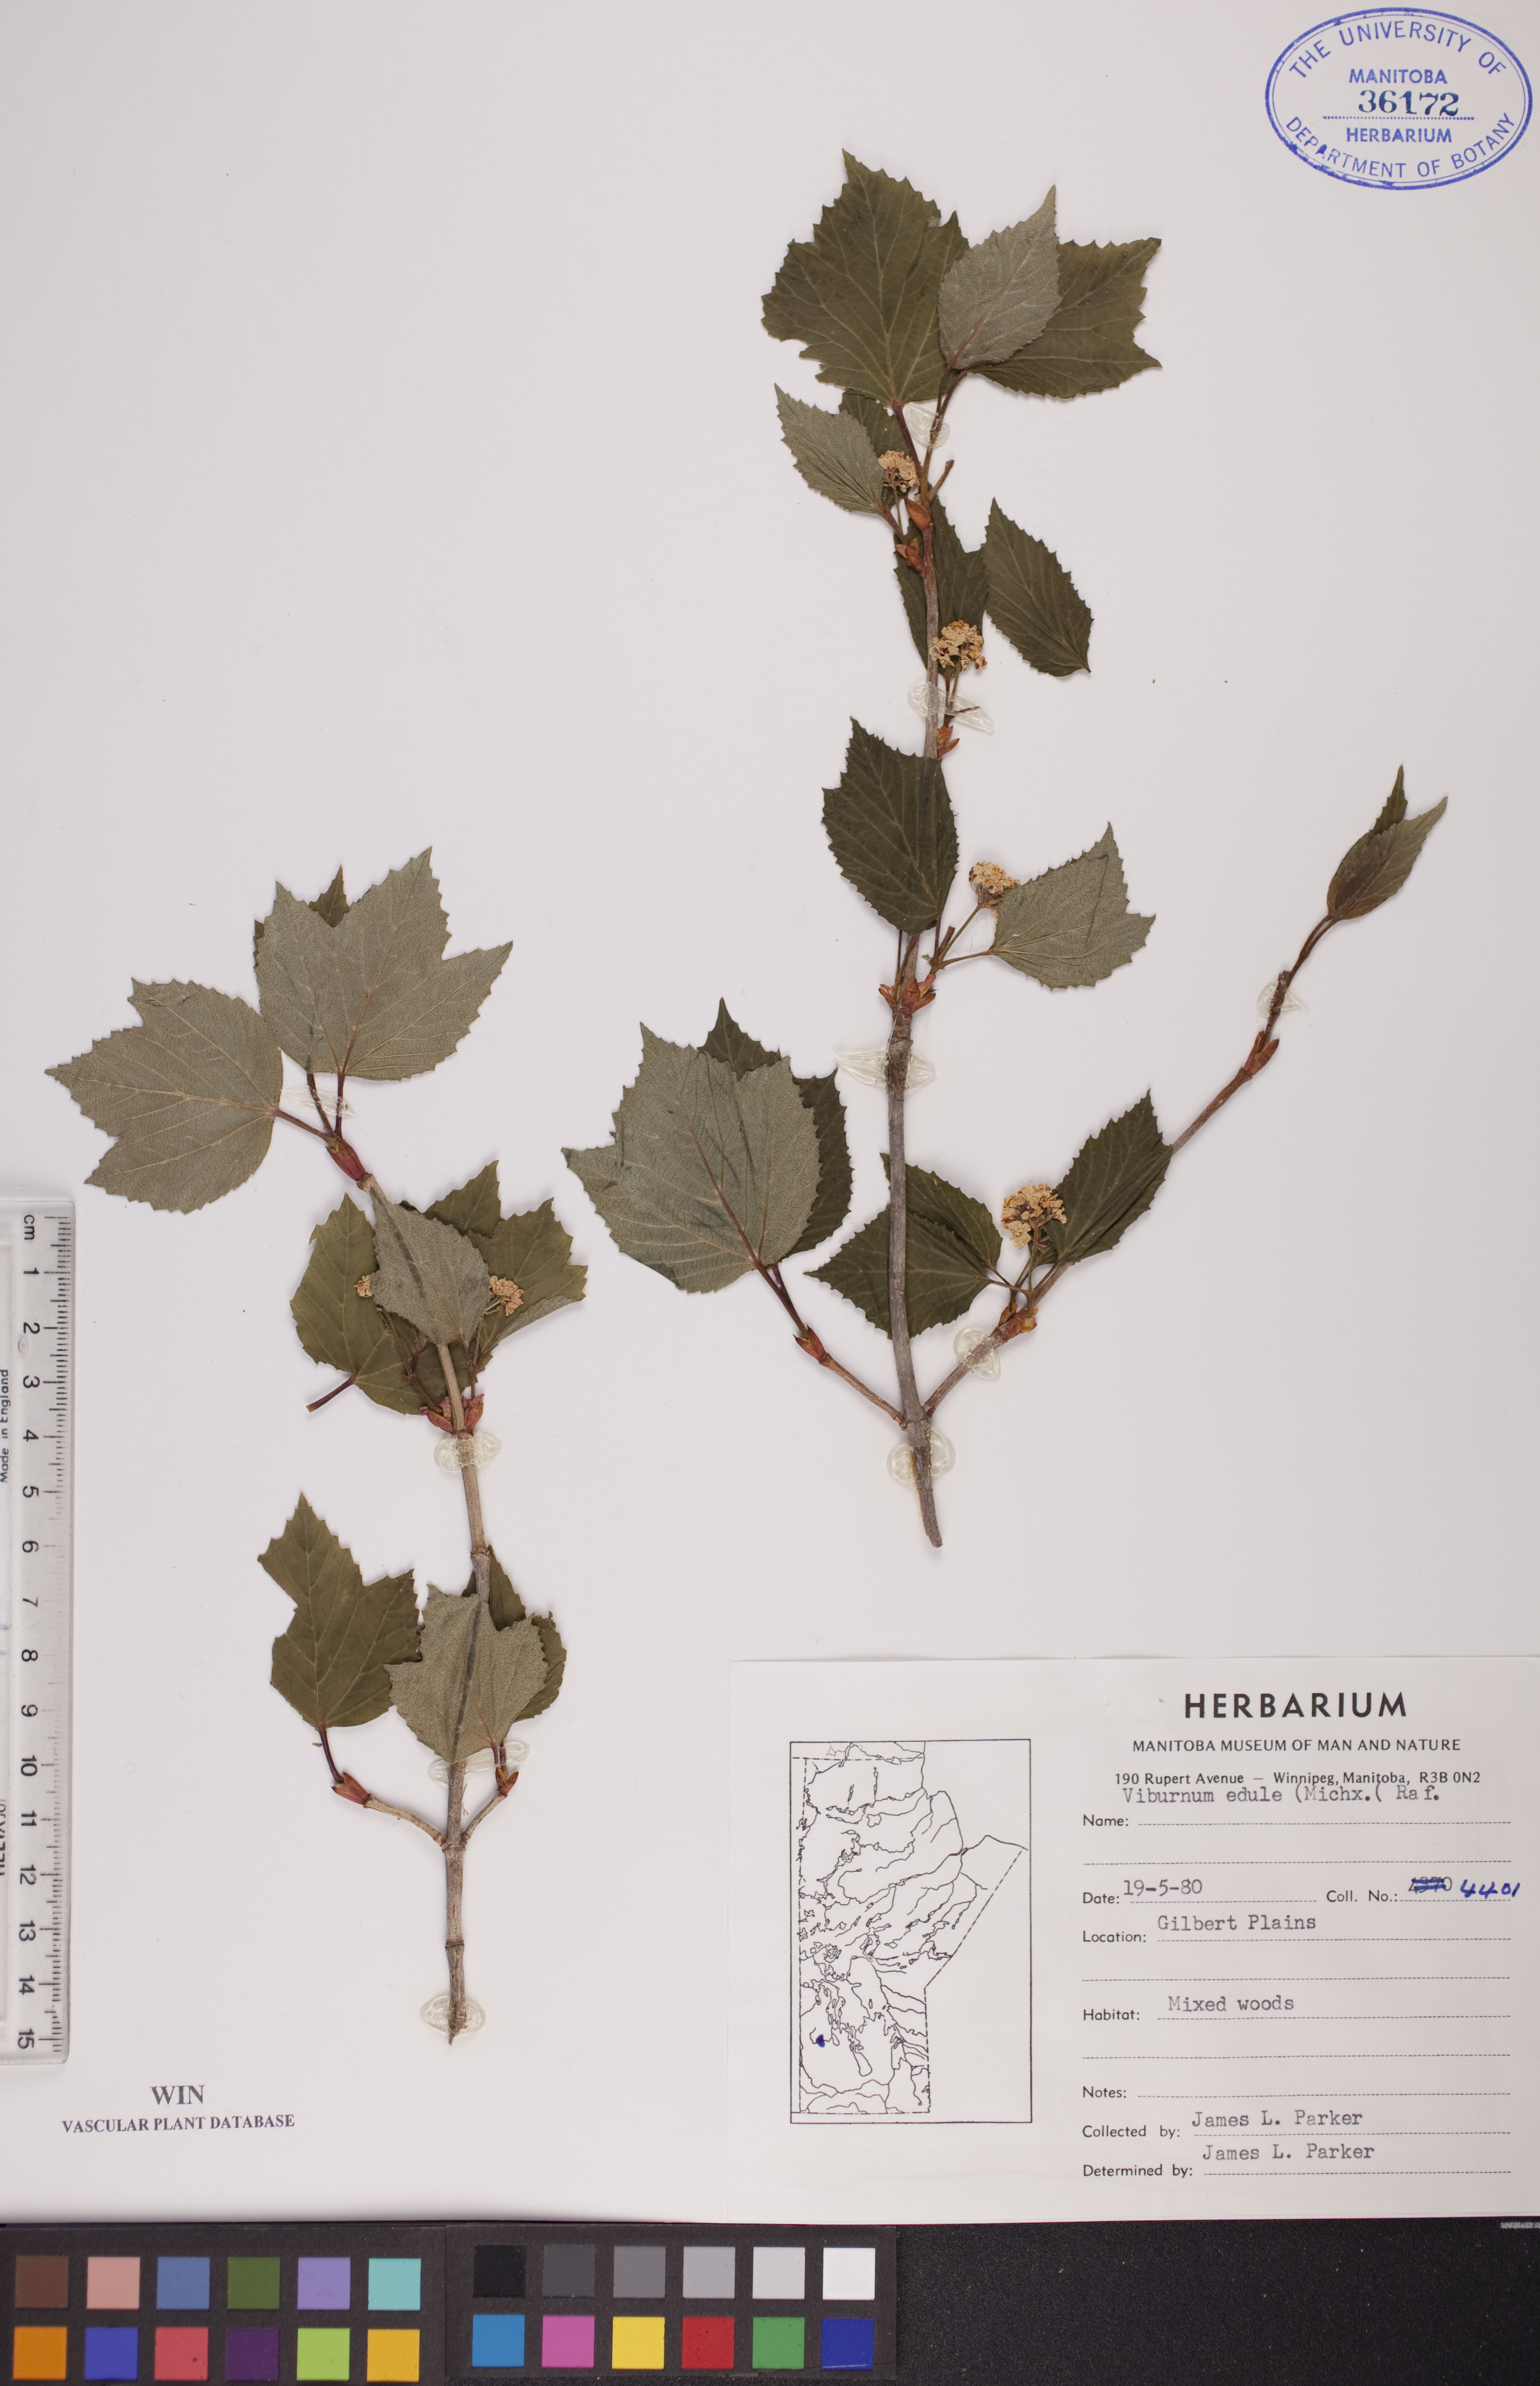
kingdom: Plantae
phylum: Tracheophyta
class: Magnoliopsida
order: Dipsacales
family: Viburnaceae
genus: Viburnum
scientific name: Viburnum edule
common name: Mooseberry
